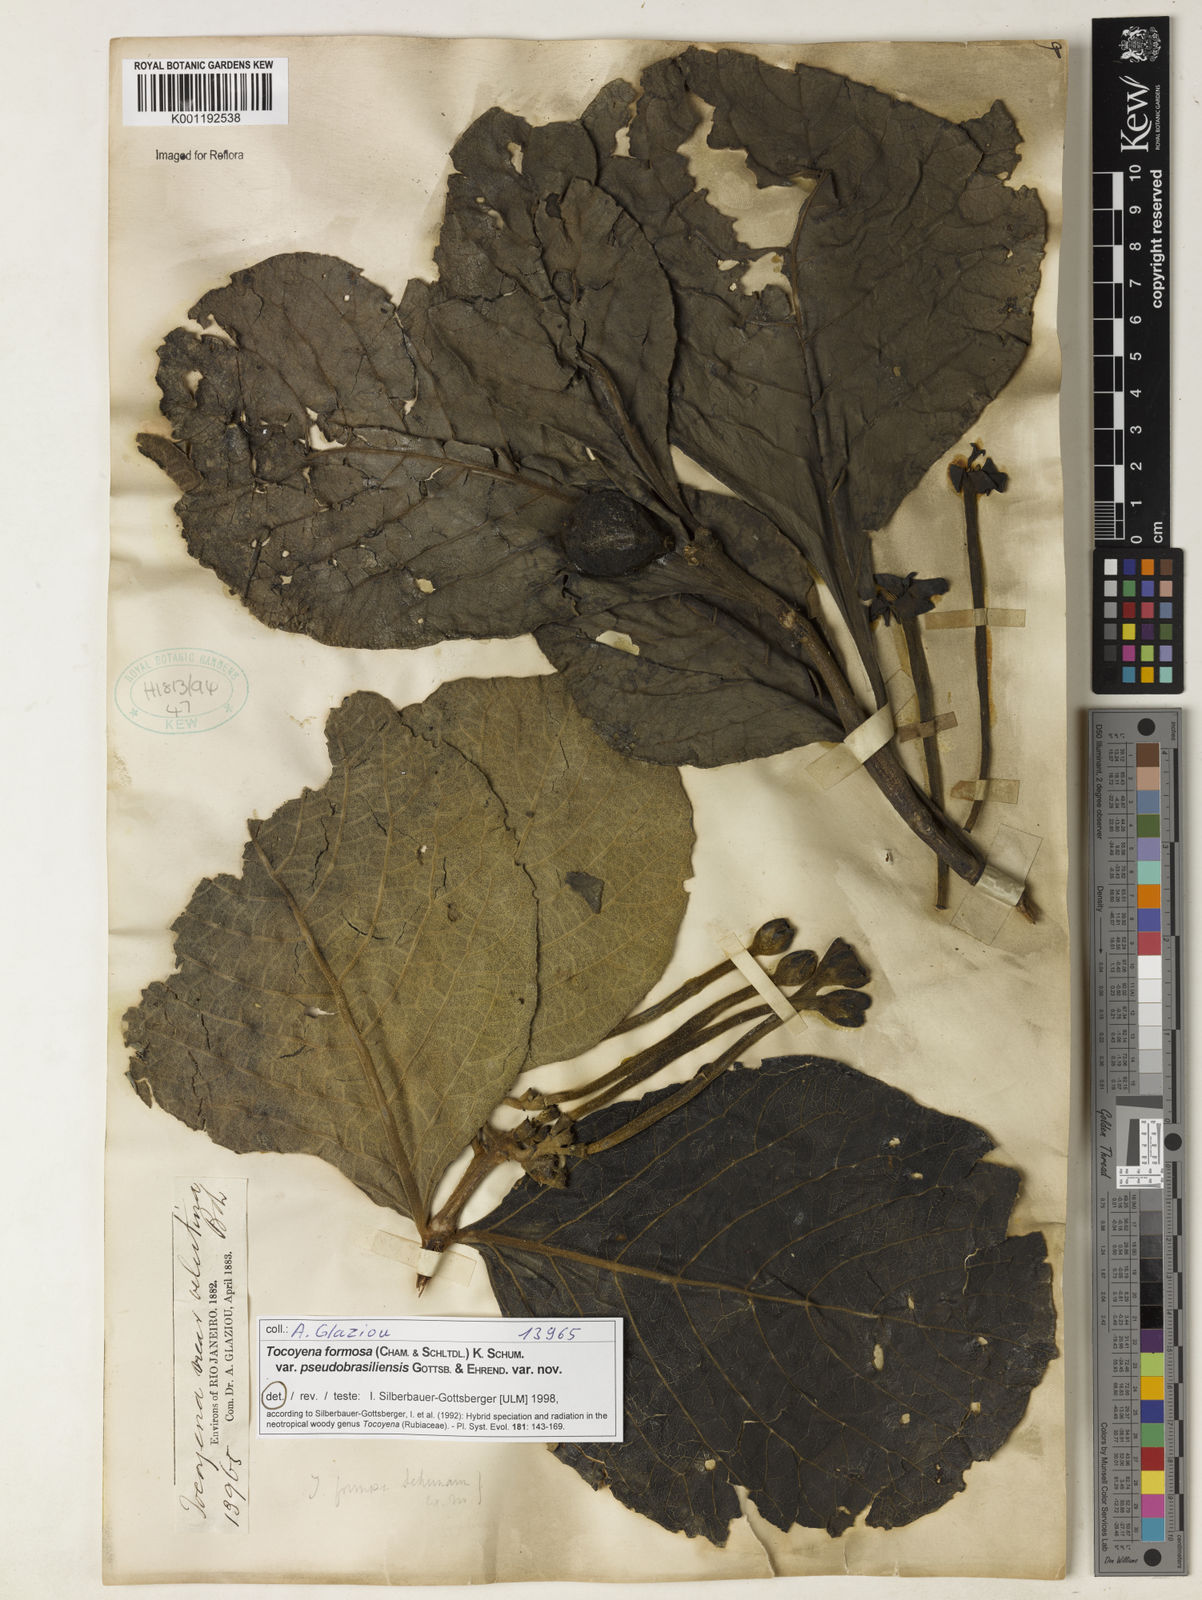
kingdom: Plantae
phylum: Tracheophyta
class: Magnoliopsida
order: Gentianales
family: Rubiaceae
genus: Tocoyena
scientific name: Tocoyena formosa
